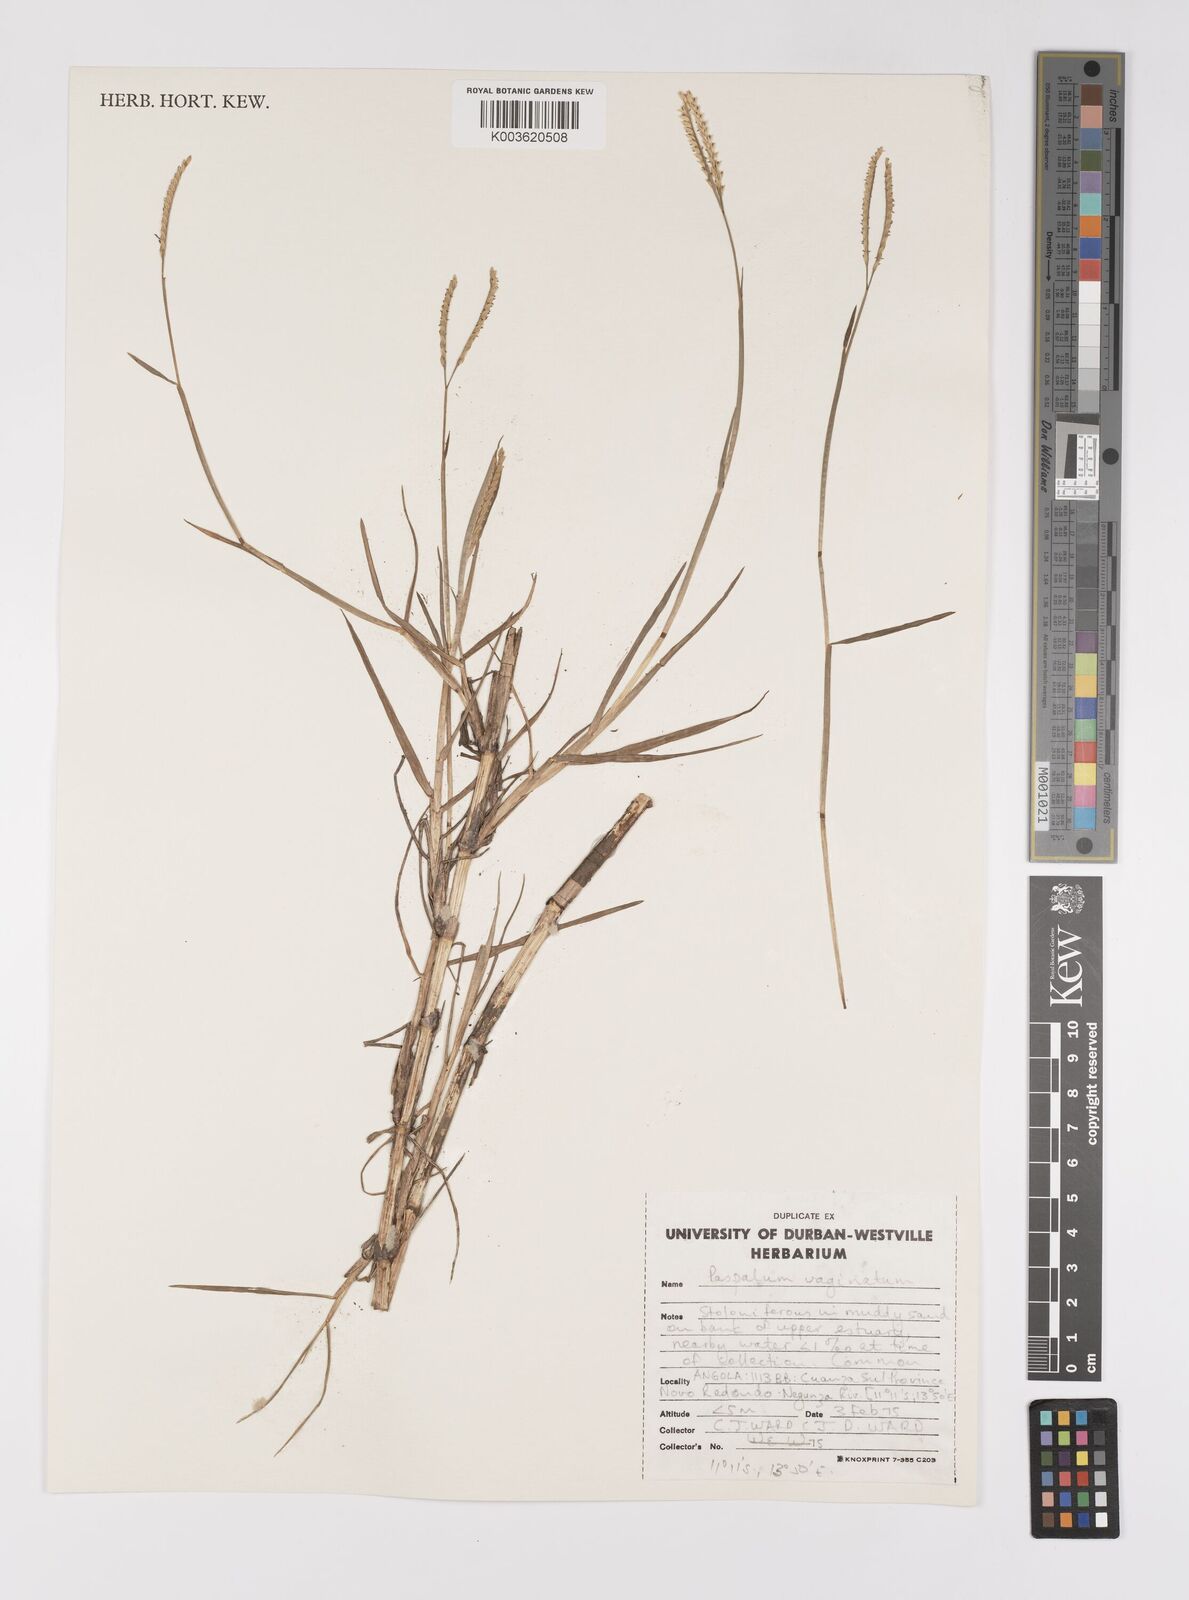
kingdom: Plantae
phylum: Tracheophyta
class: Liliopsida
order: Poales
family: Poaceae
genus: Paspalum
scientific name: Paspalum vaginatum
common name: Seashore paspalum
